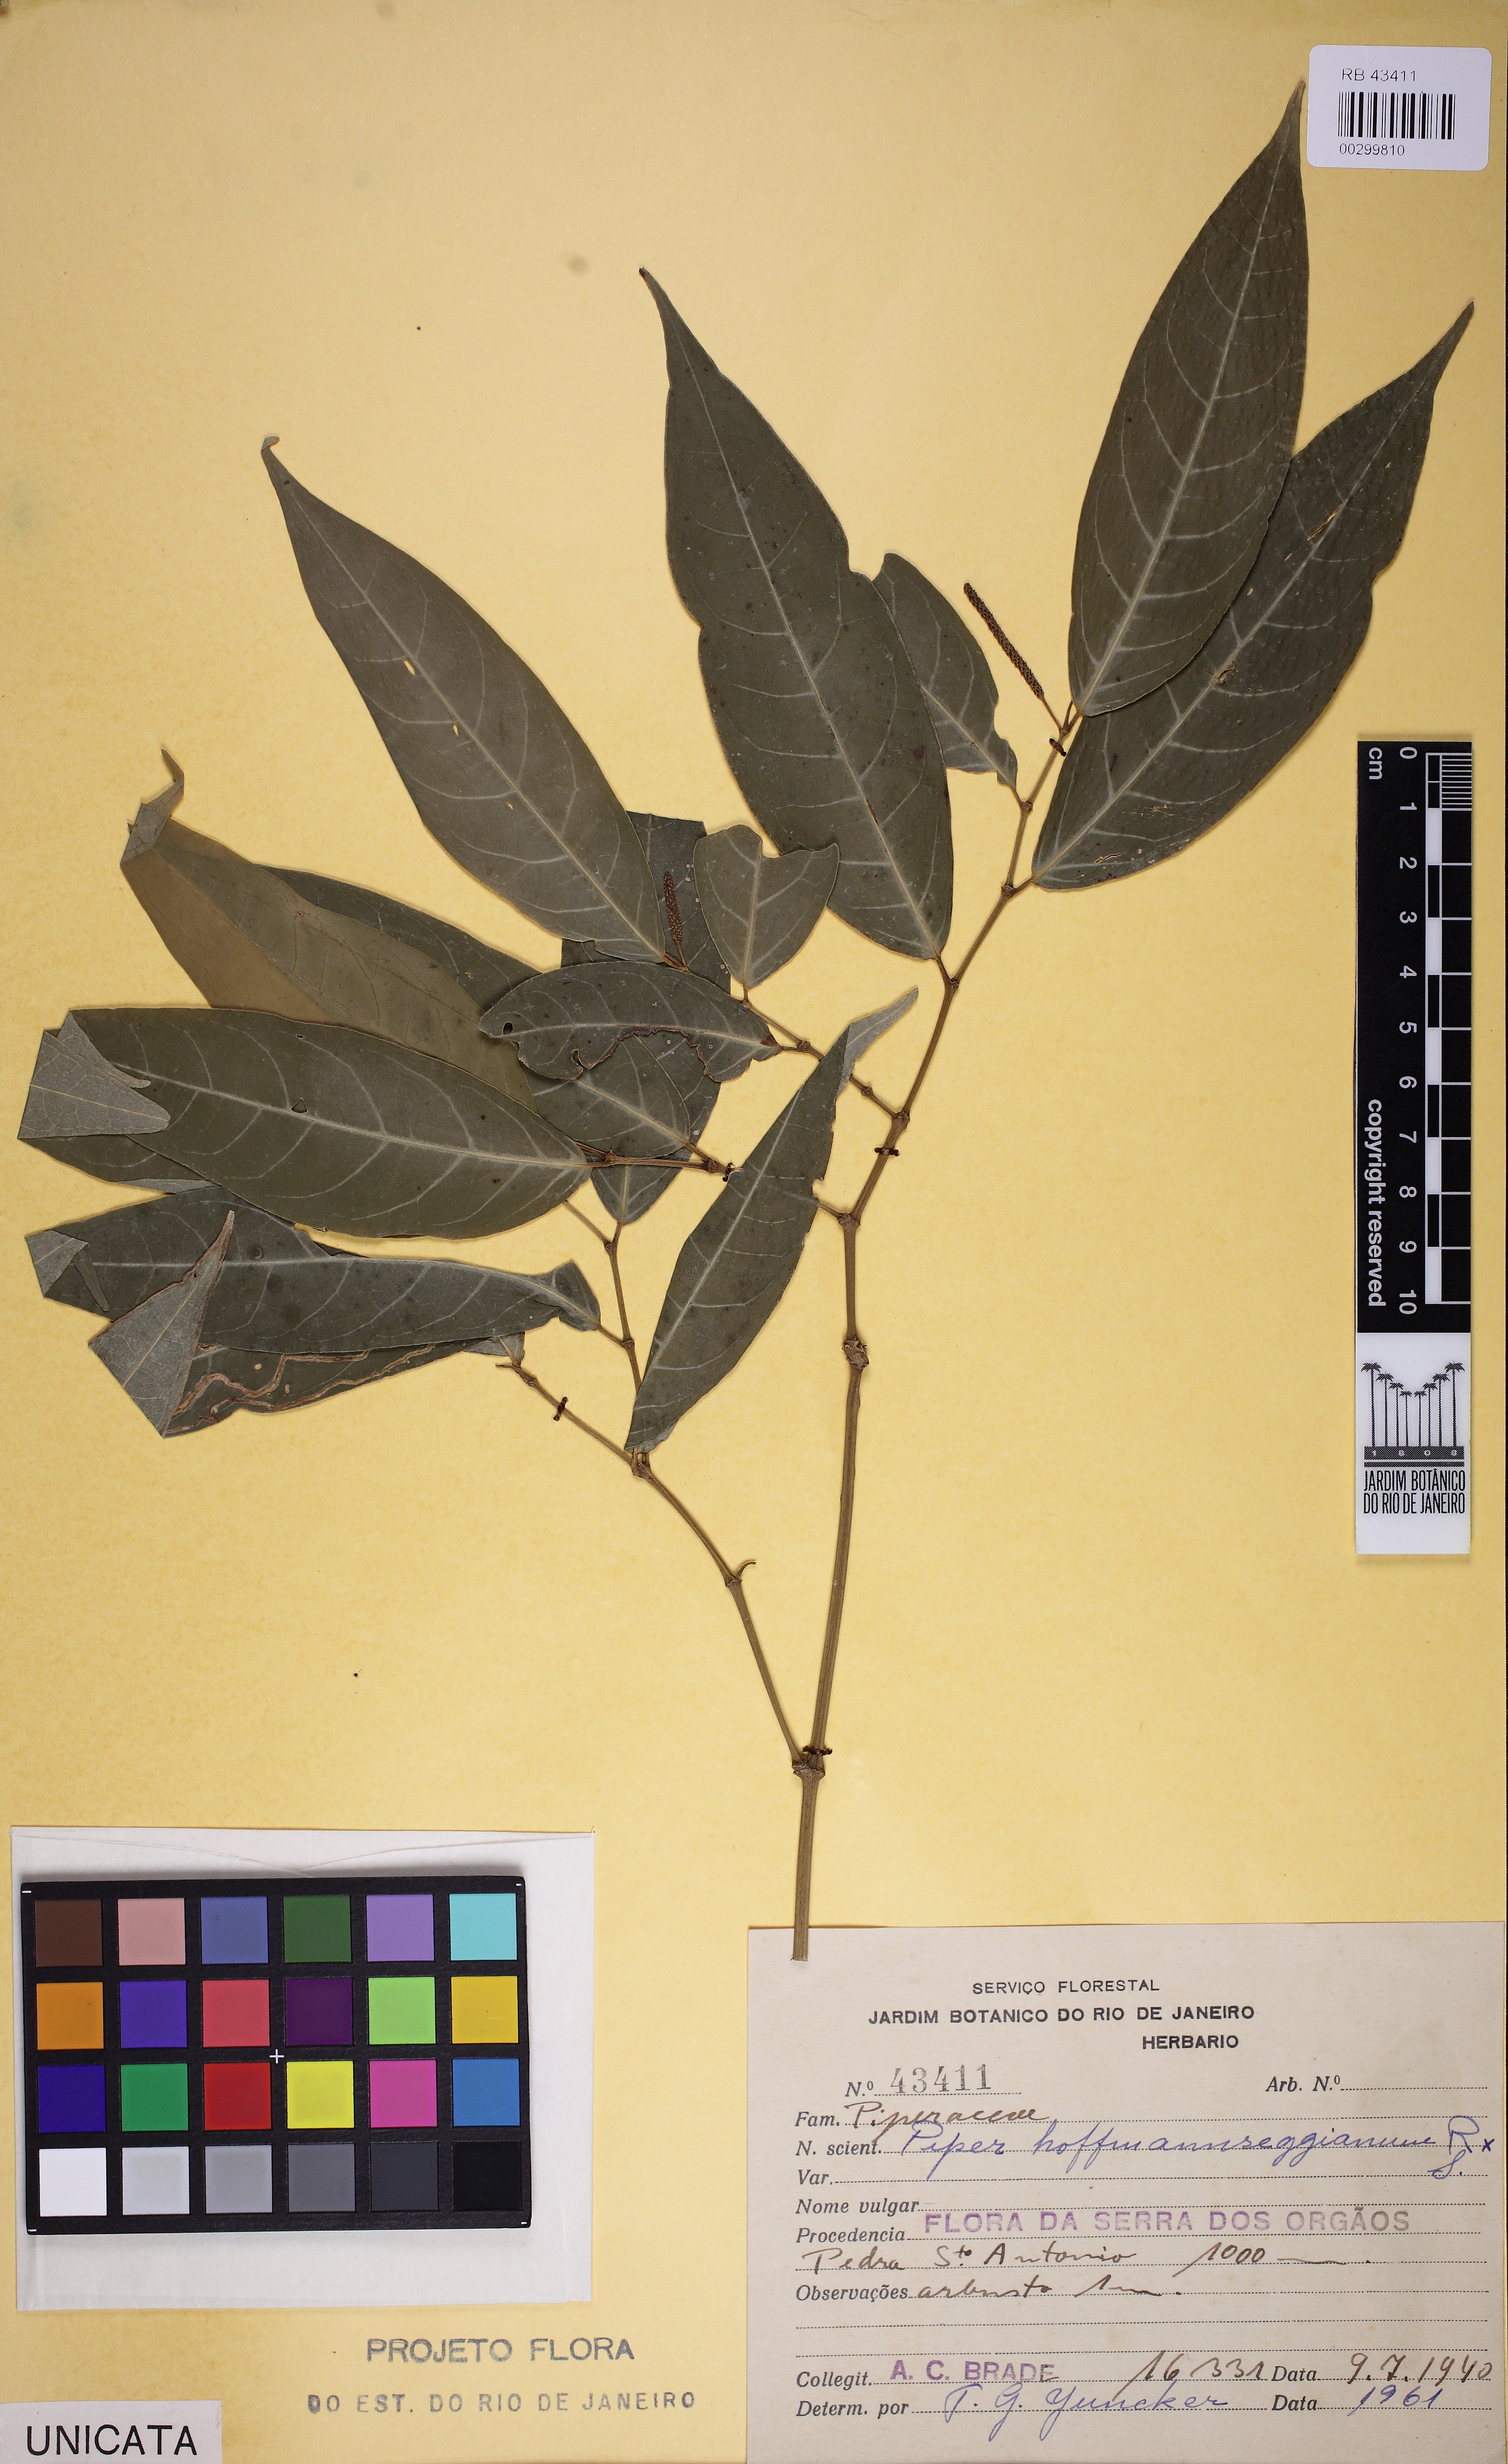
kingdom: Plantae
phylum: Tracheophyta
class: Magnoliopsida
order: Piperales
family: Piperaceae
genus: Piper
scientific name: Piper hoffmannseggianum
